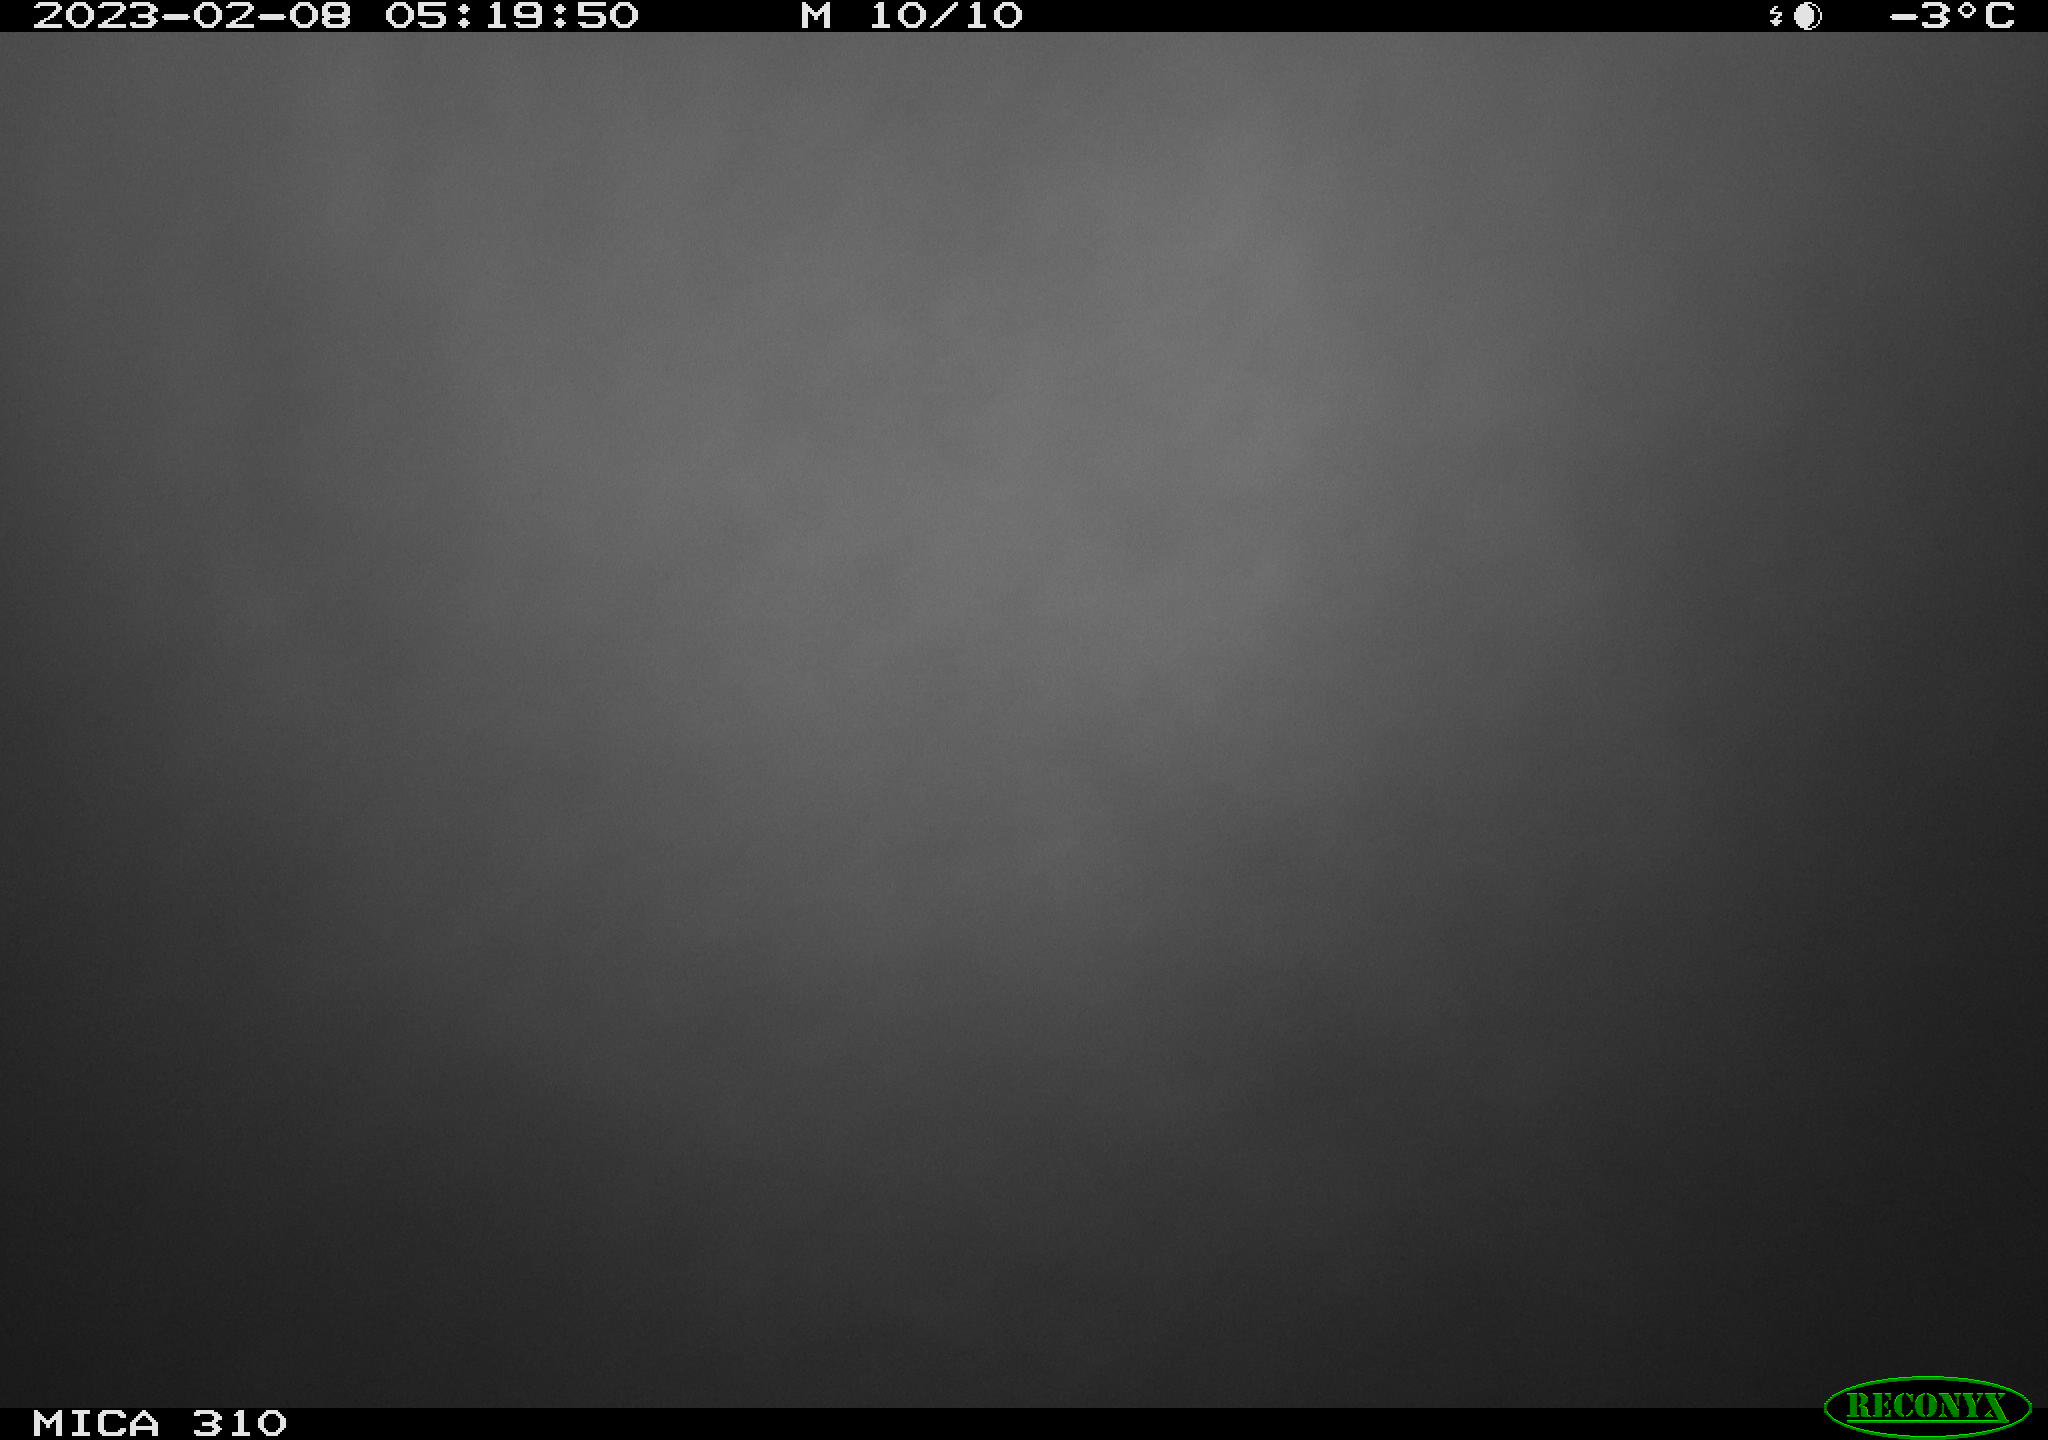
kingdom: Animalia
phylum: Chordata
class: Mammalia
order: Rodentia
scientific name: Rodentia
